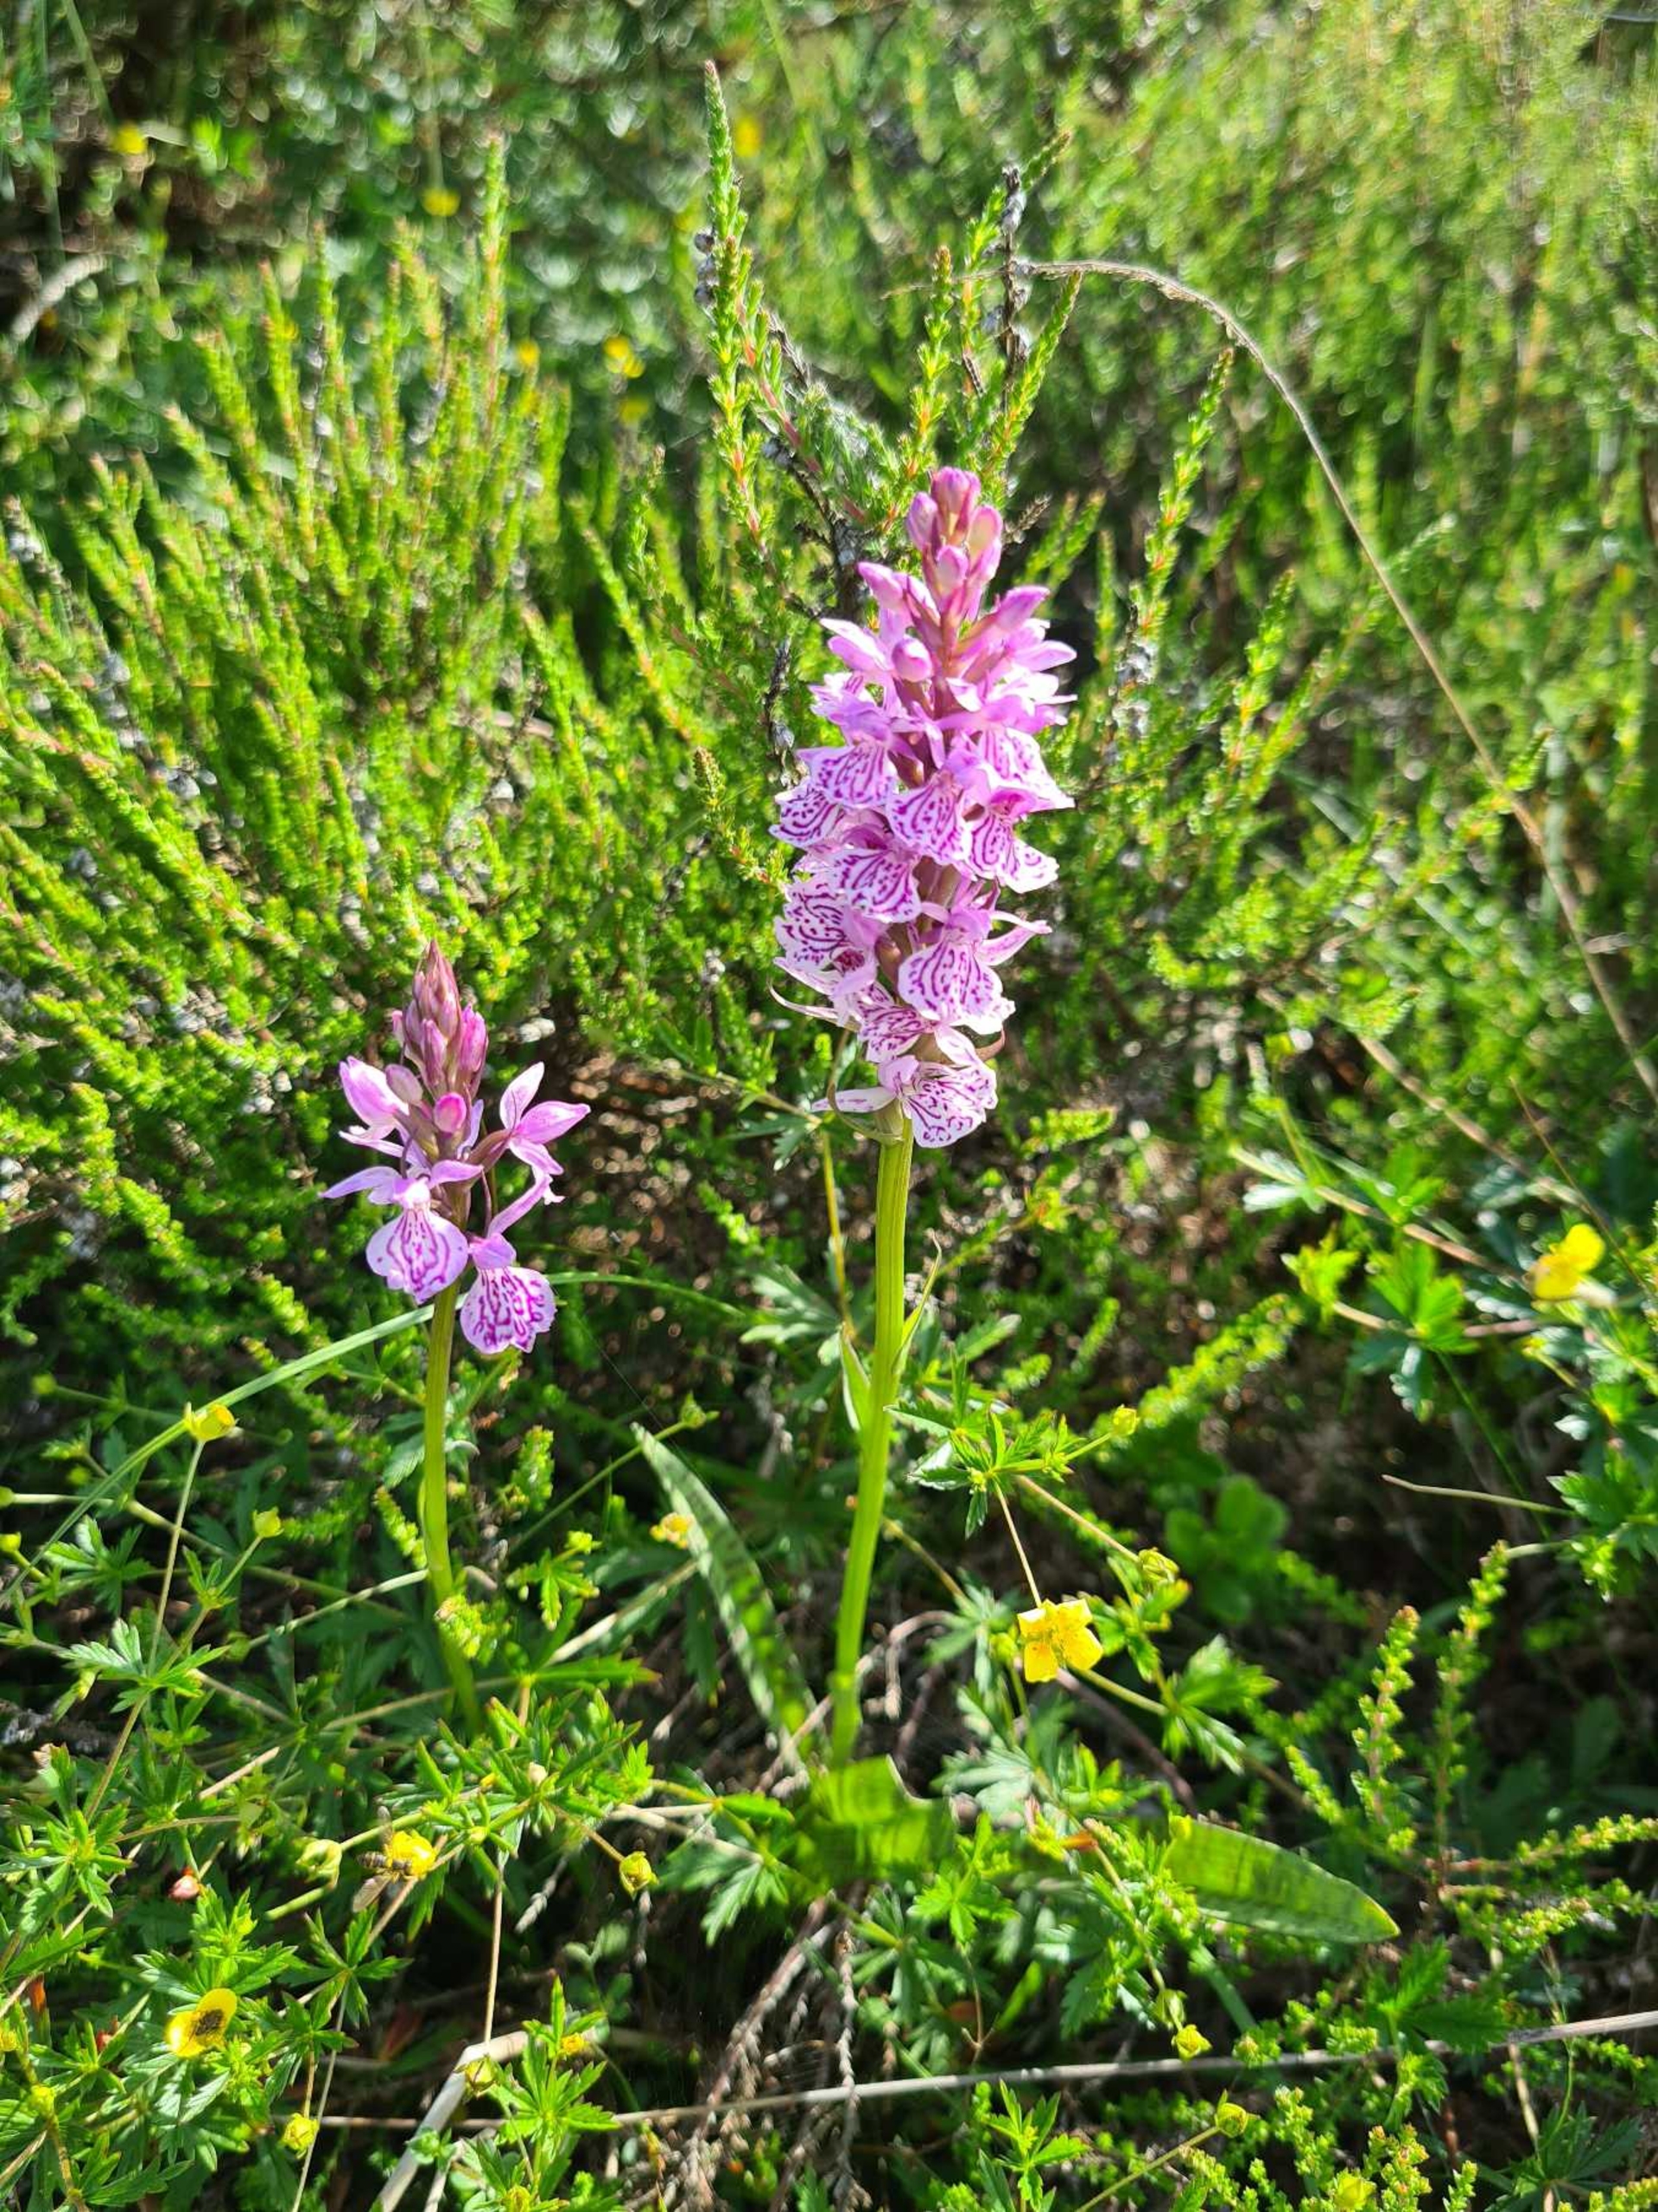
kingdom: Plantae
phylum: Tracheophyta
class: Liliopsida
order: Asparagales
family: Orchidaceae
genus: Dactylorhiza
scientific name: Dactylorhiza maculata
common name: Plettet gøgeurt
